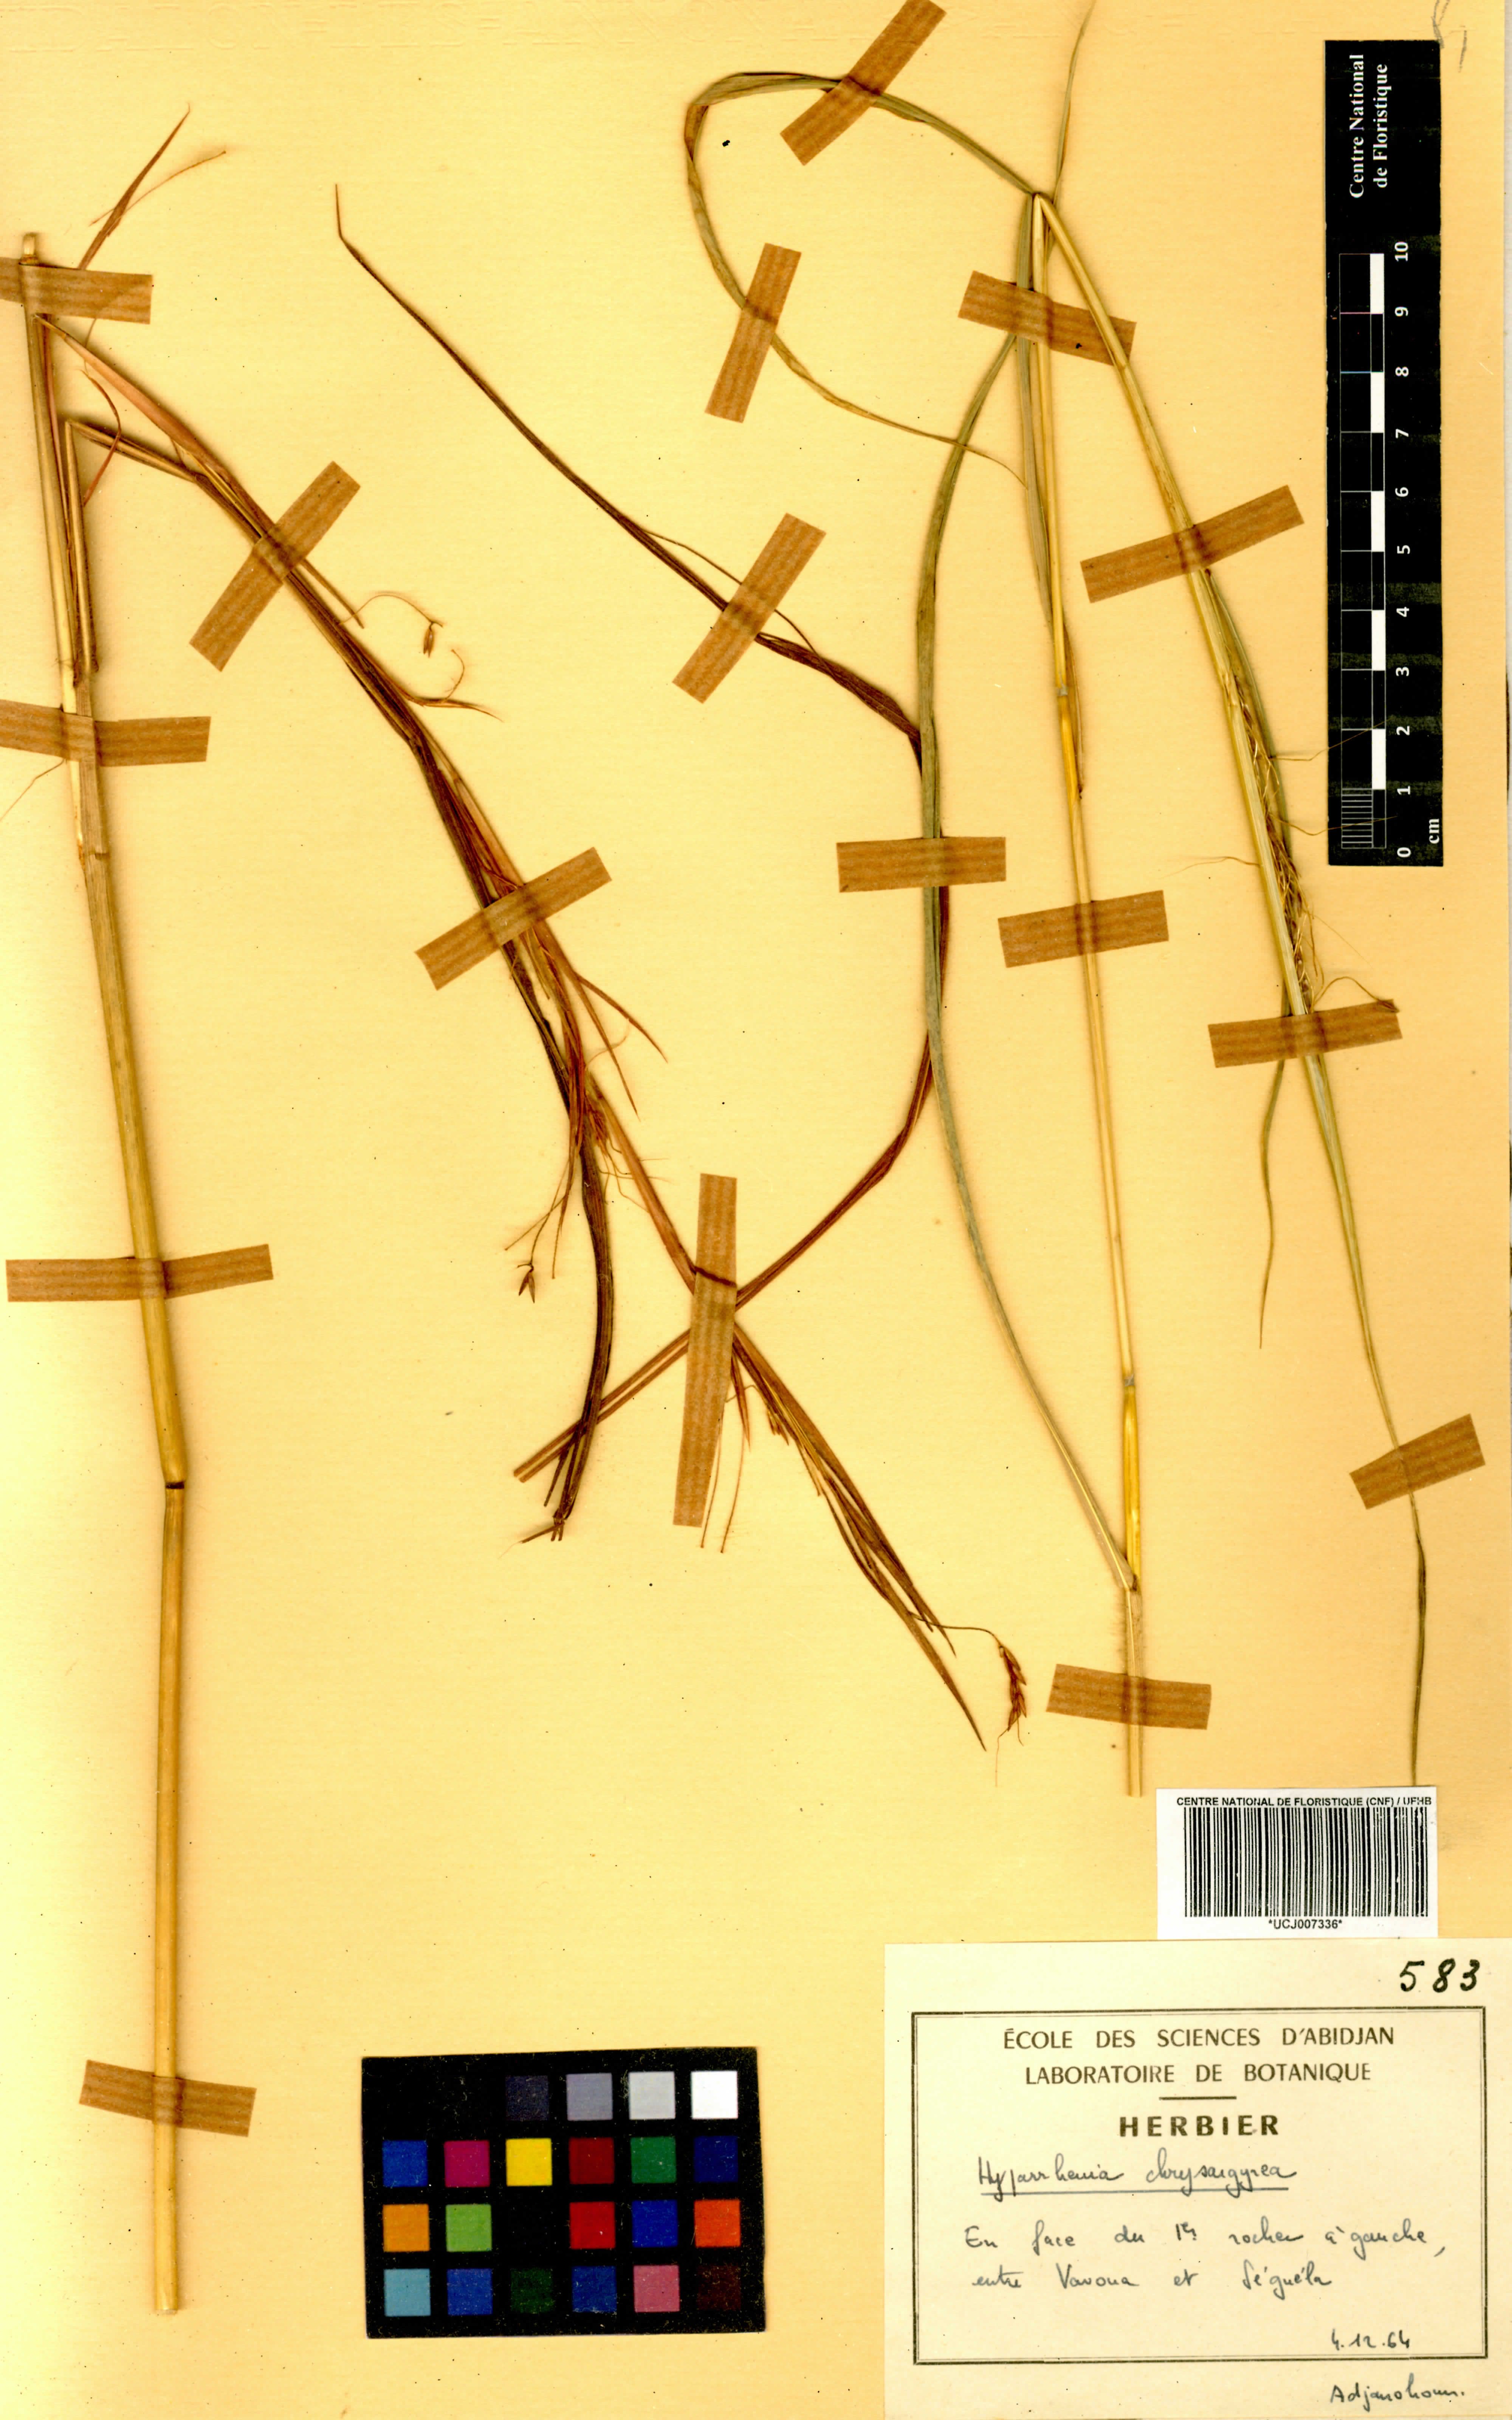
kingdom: Plantae
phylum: Tracheophyta
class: Liliopsida
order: Poales
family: Poaceae
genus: Hyparrhenia
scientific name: Hyparrhenia nyassae
